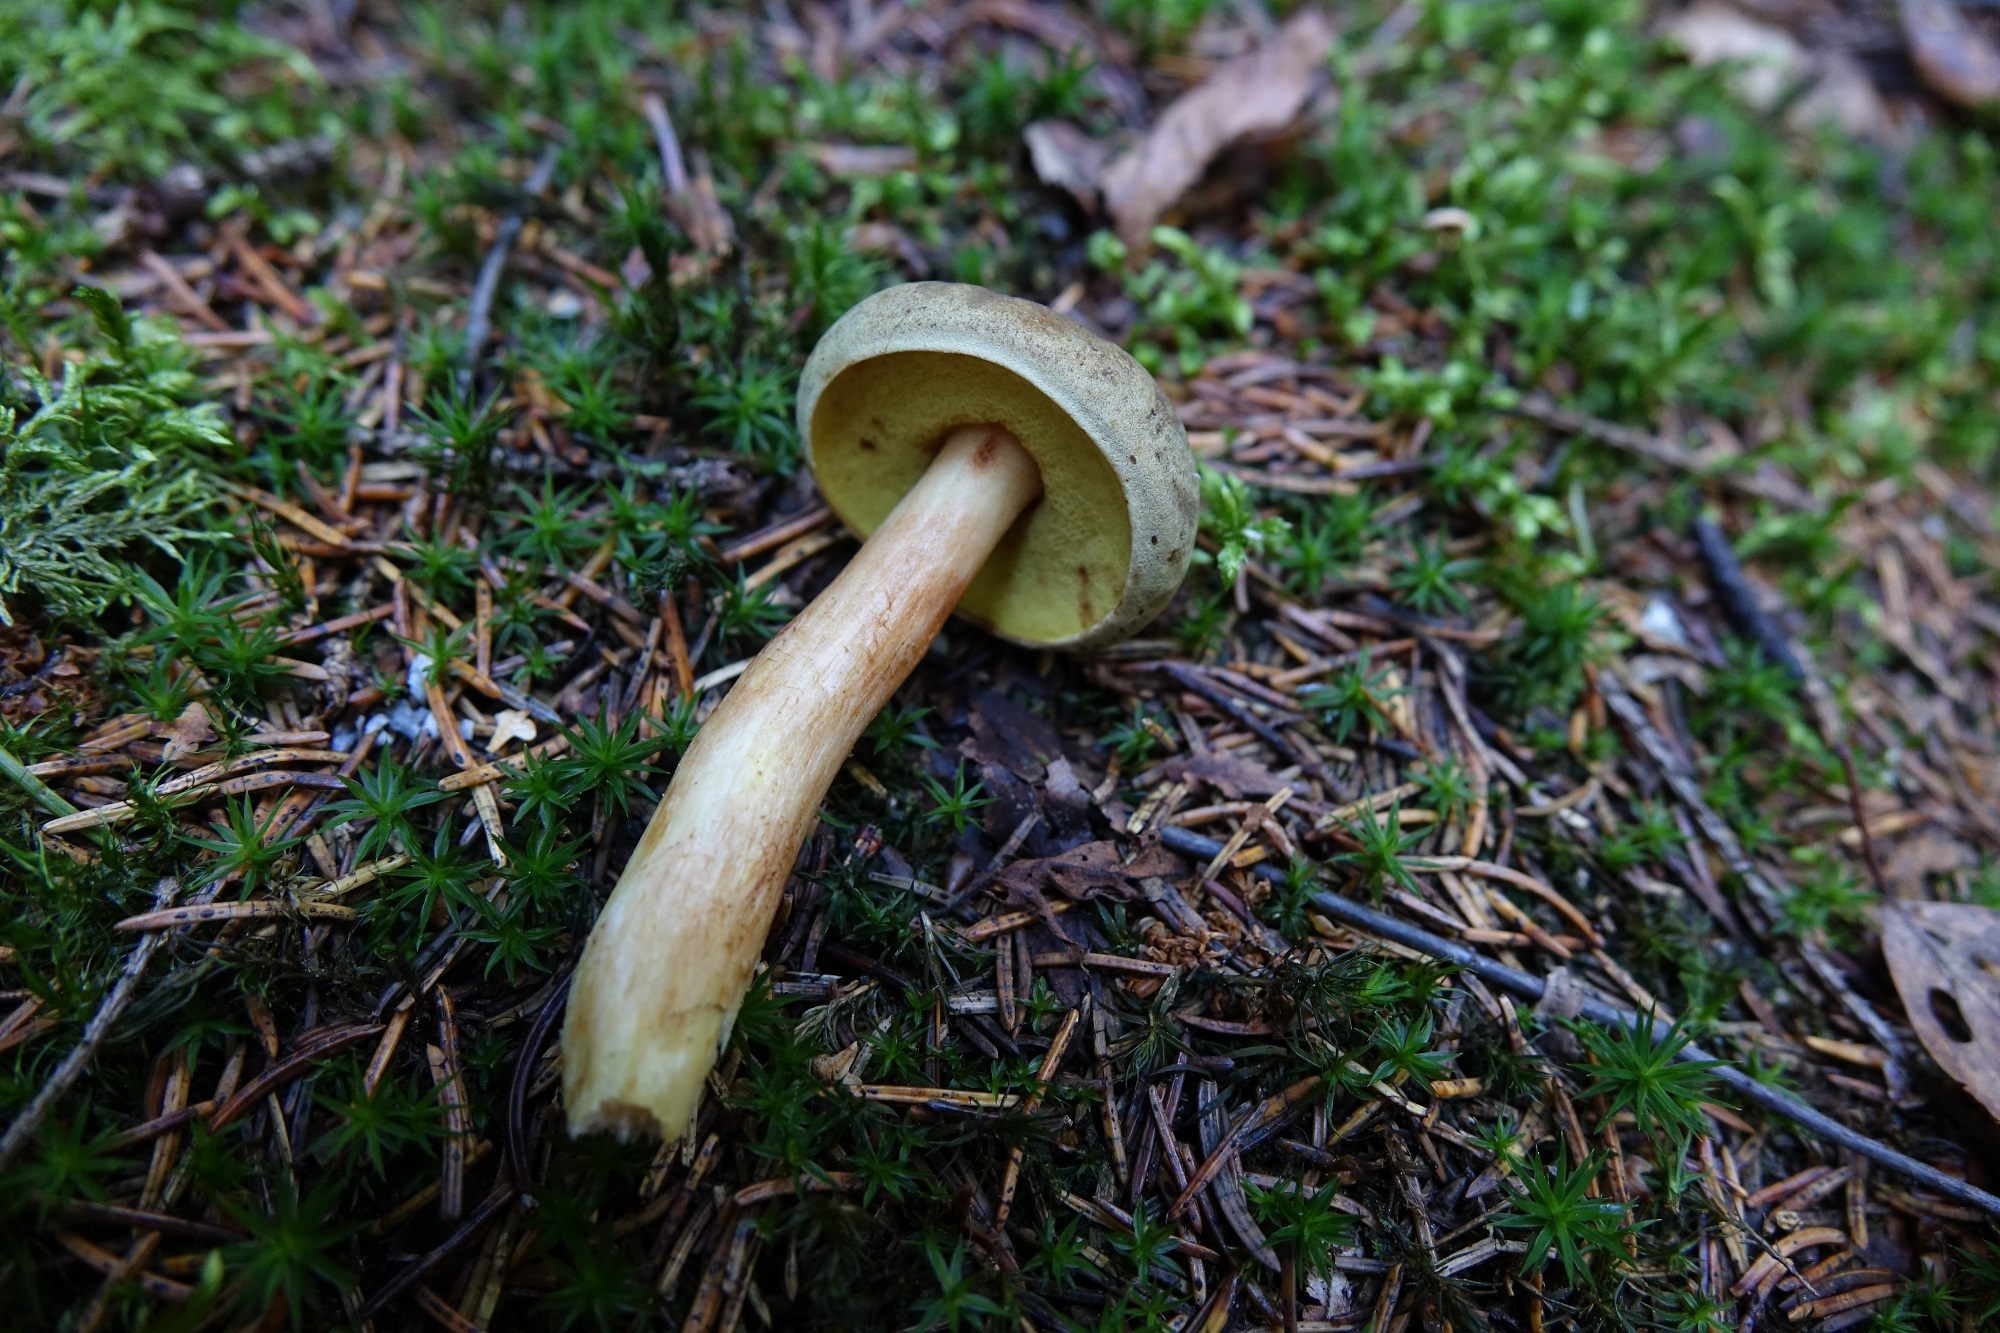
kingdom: Fungi
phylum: Basidiomycota
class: Agaricomycetes
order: Boletales
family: Boletaceae
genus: Xerocomus
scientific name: Xerocomus
